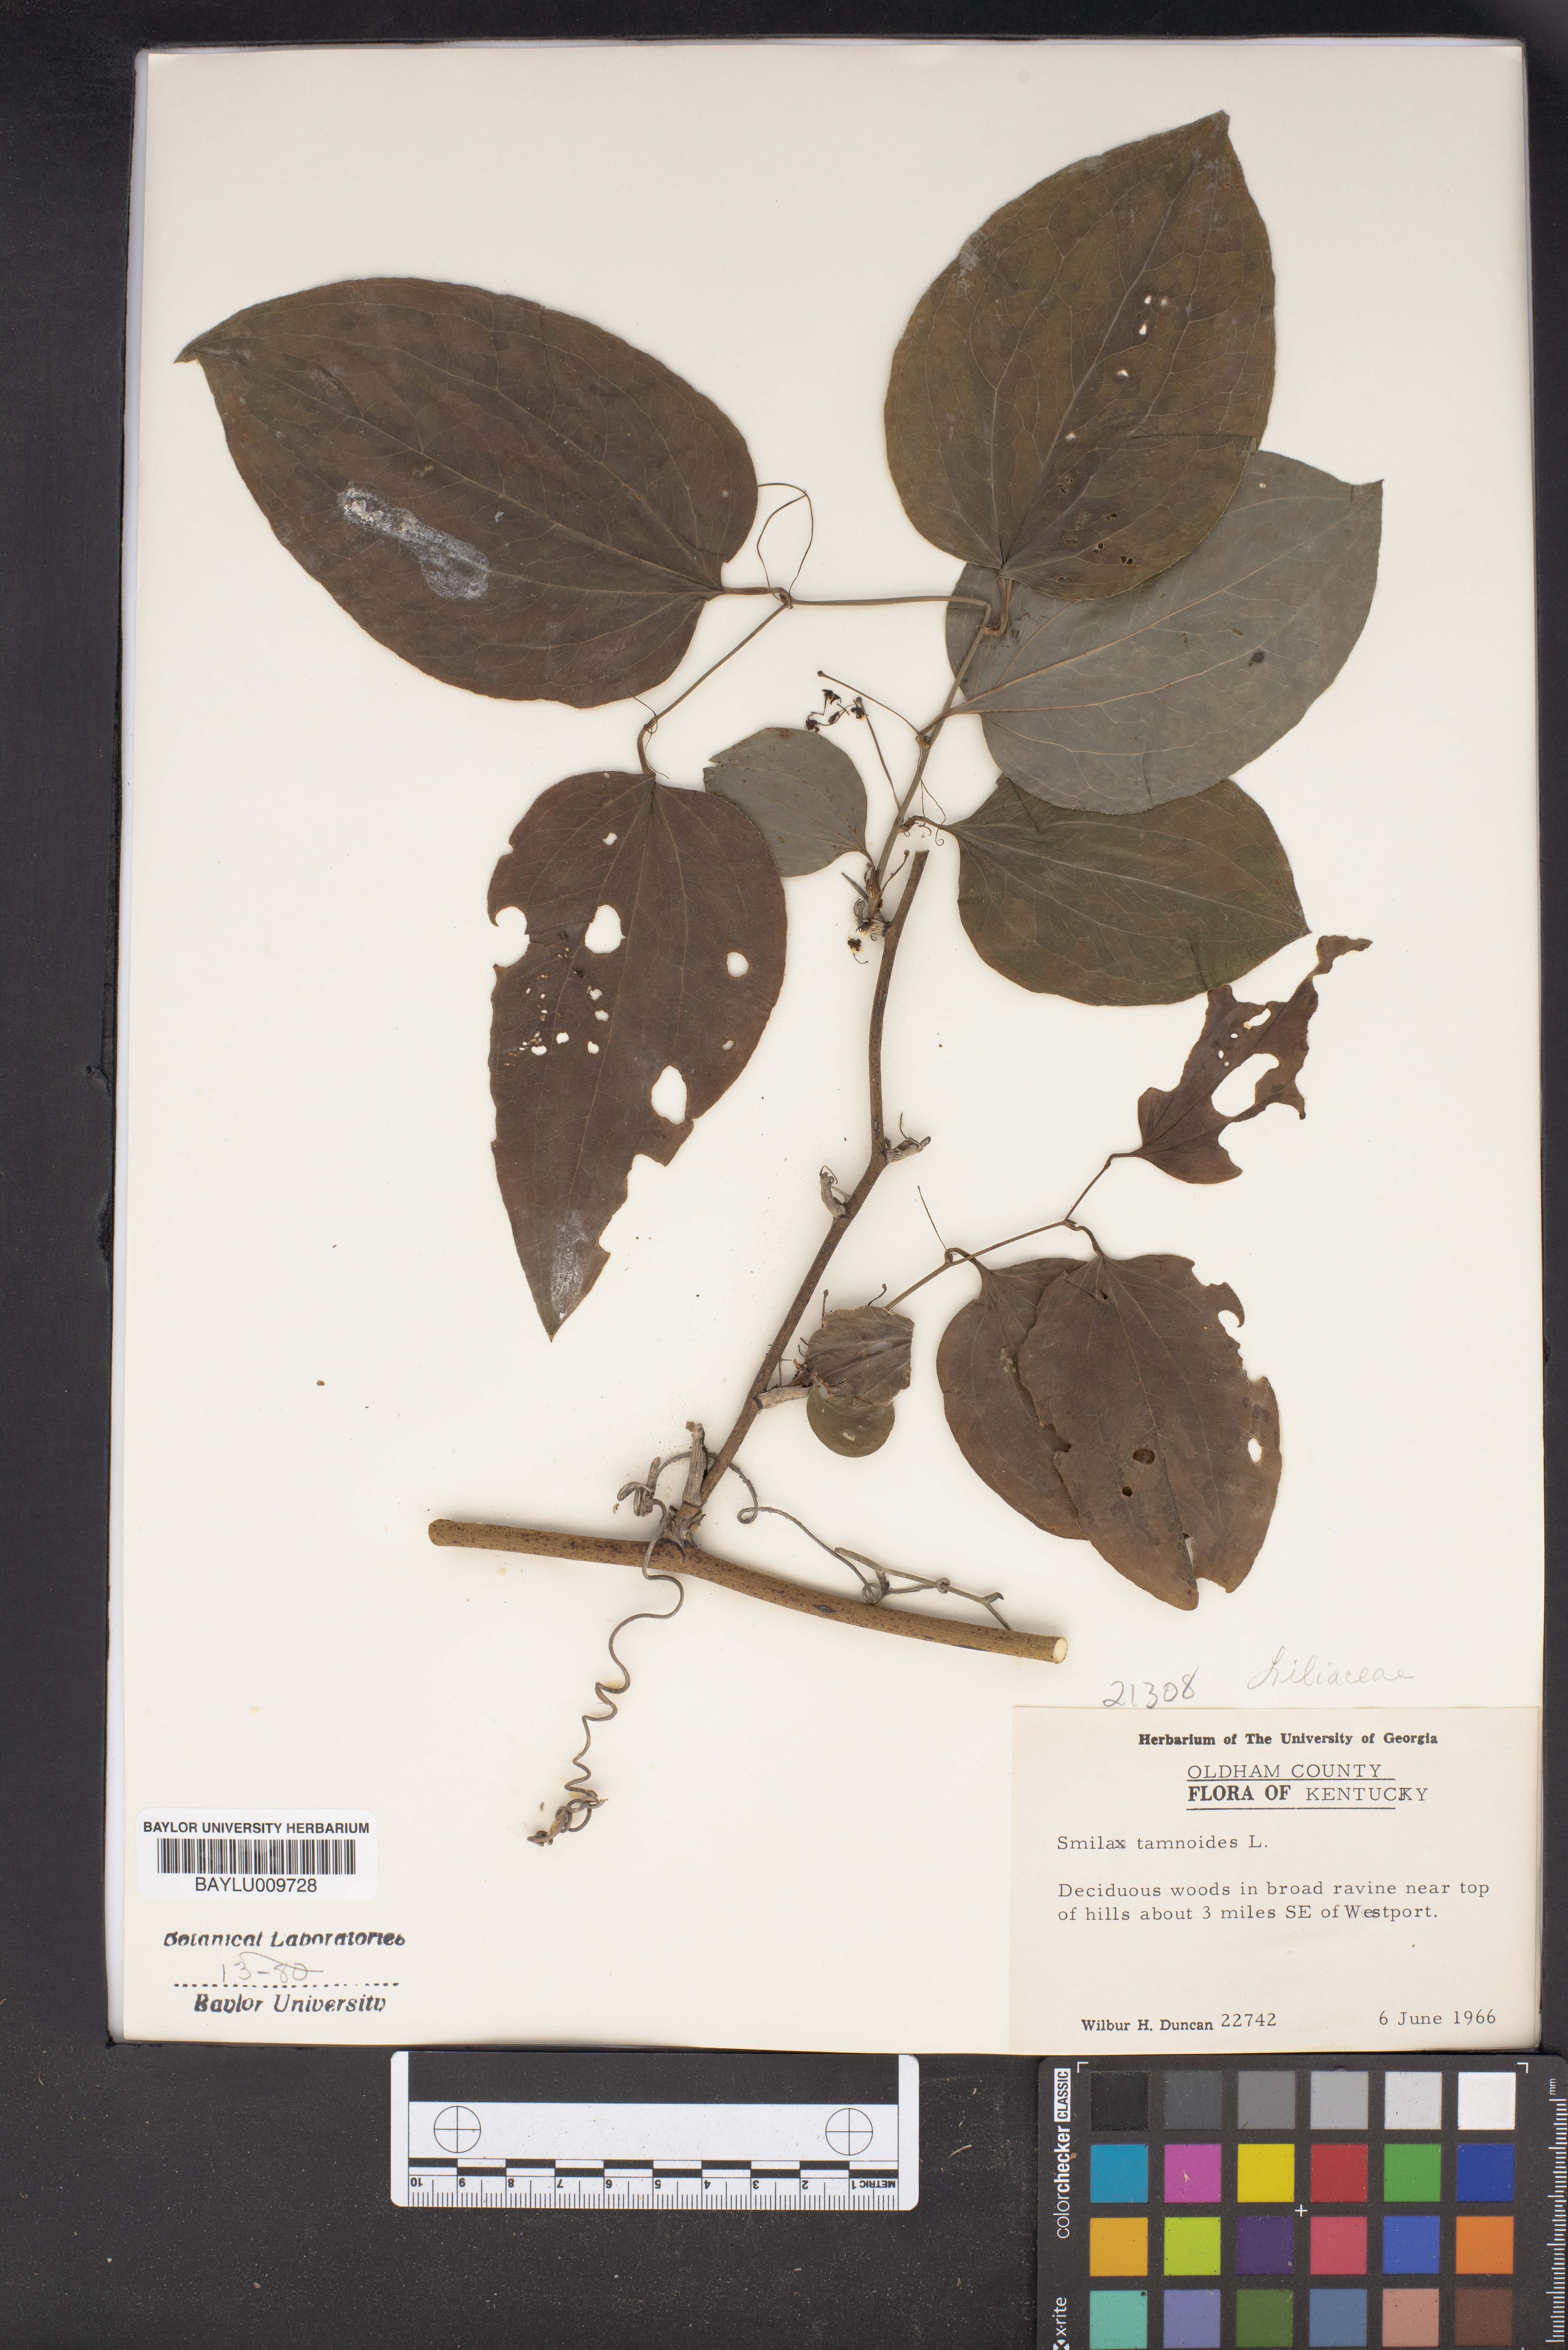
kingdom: Plantae
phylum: Tracheophyta
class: Liliopsida
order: Liliales
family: Smilacaceae
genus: Smilax
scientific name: Smilax tamnoides
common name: Hellfetter
